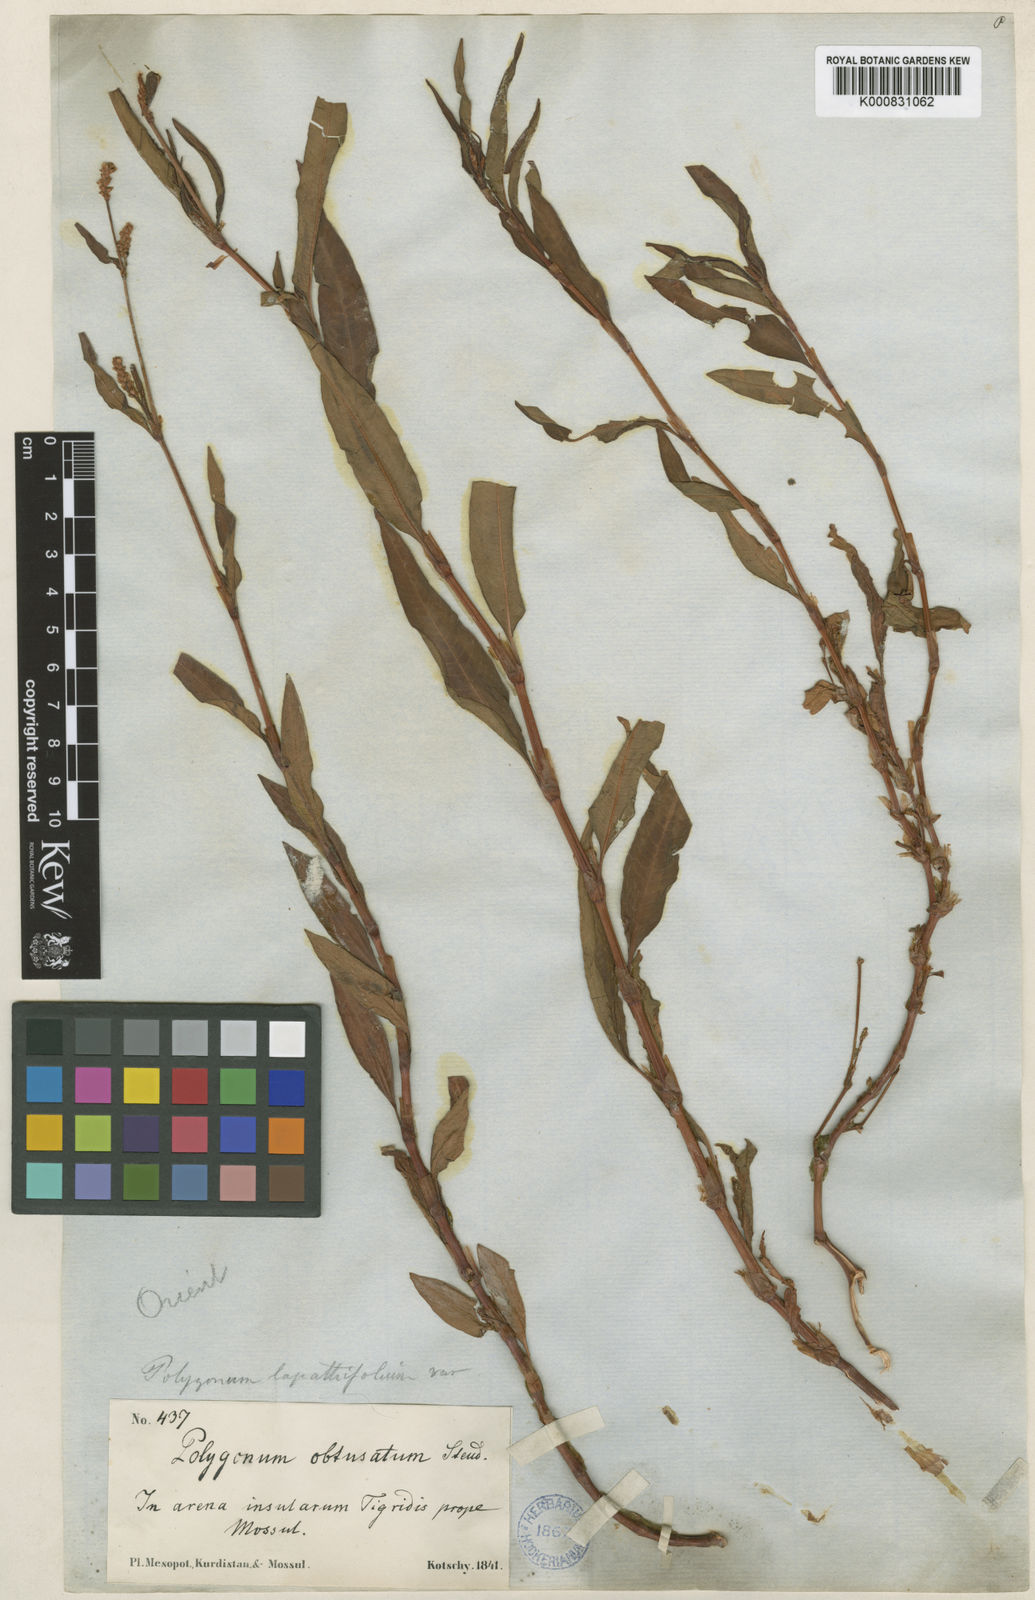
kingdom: Plantae
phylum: Tracheophyta
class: Magnoliopsida
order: Caryophyllales
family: Polygonaceae
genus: Persicaria
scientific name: Persicaria
